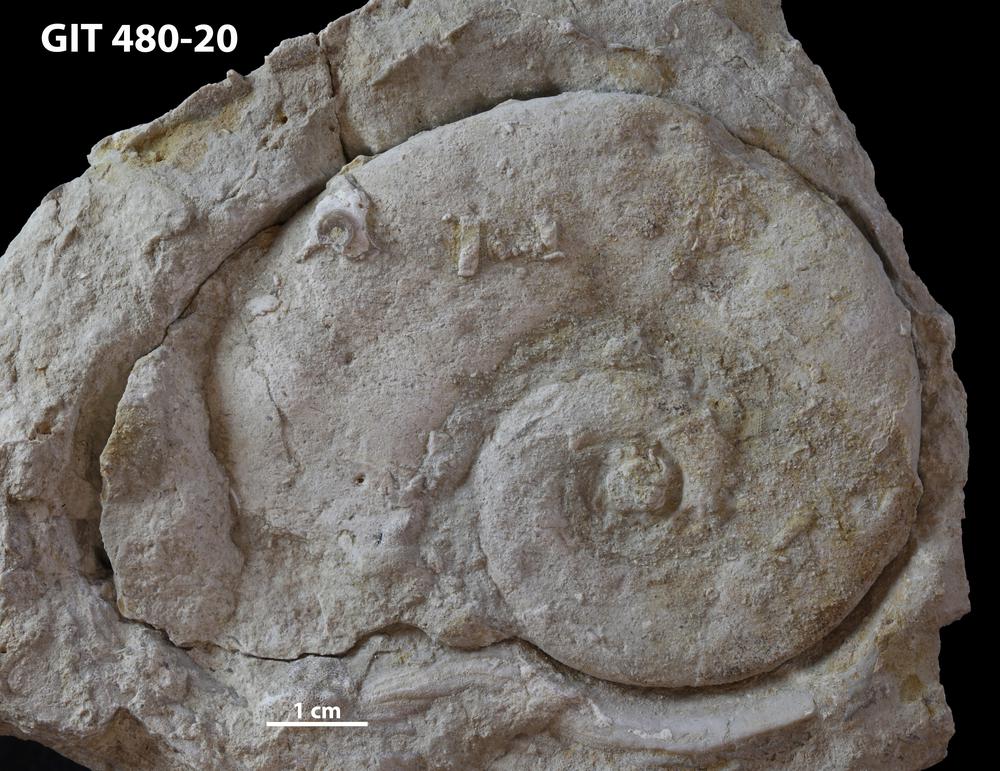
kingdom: Animalia
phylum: Mollusca
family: Macluritidae
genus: Maclurites
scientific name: Maclurites Maclurea neritoides
